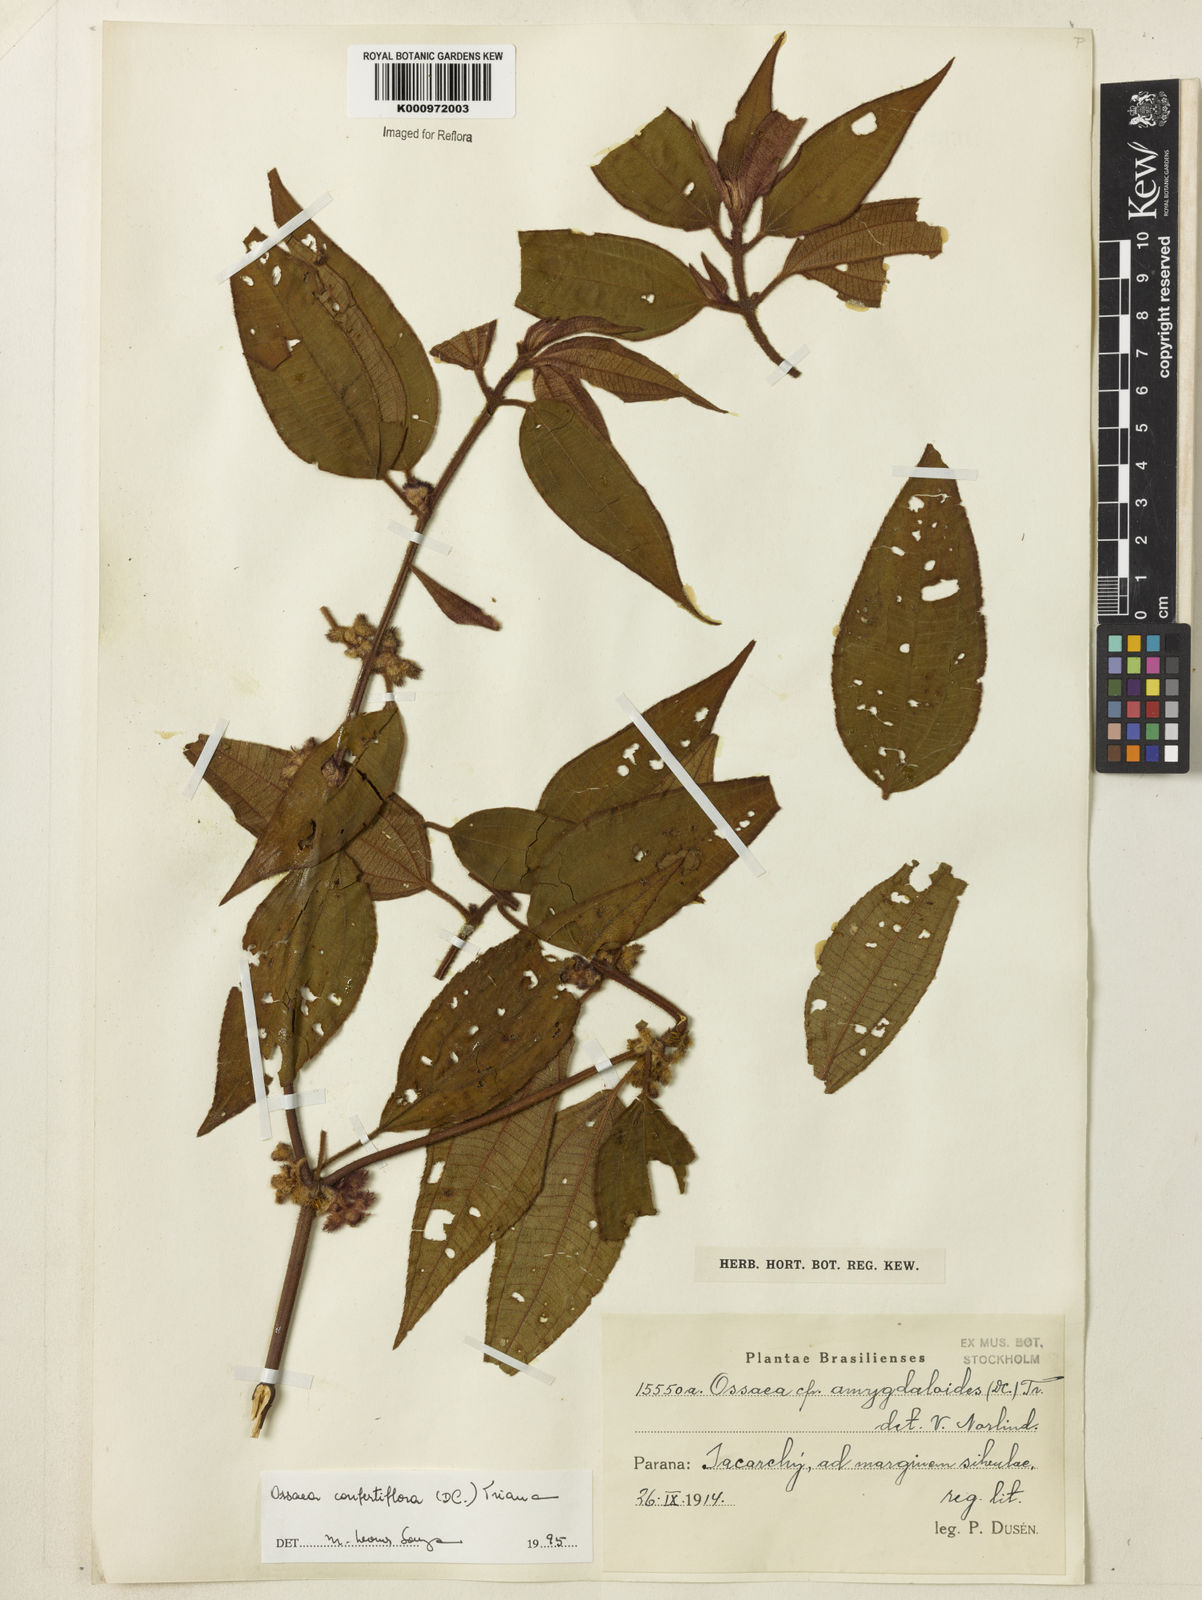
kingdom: Plantae
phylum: Tracheophyta
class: Magnoliopsida
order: Myrtales
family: Melastomataceae
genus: Miconia
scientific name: Miconia rubella
